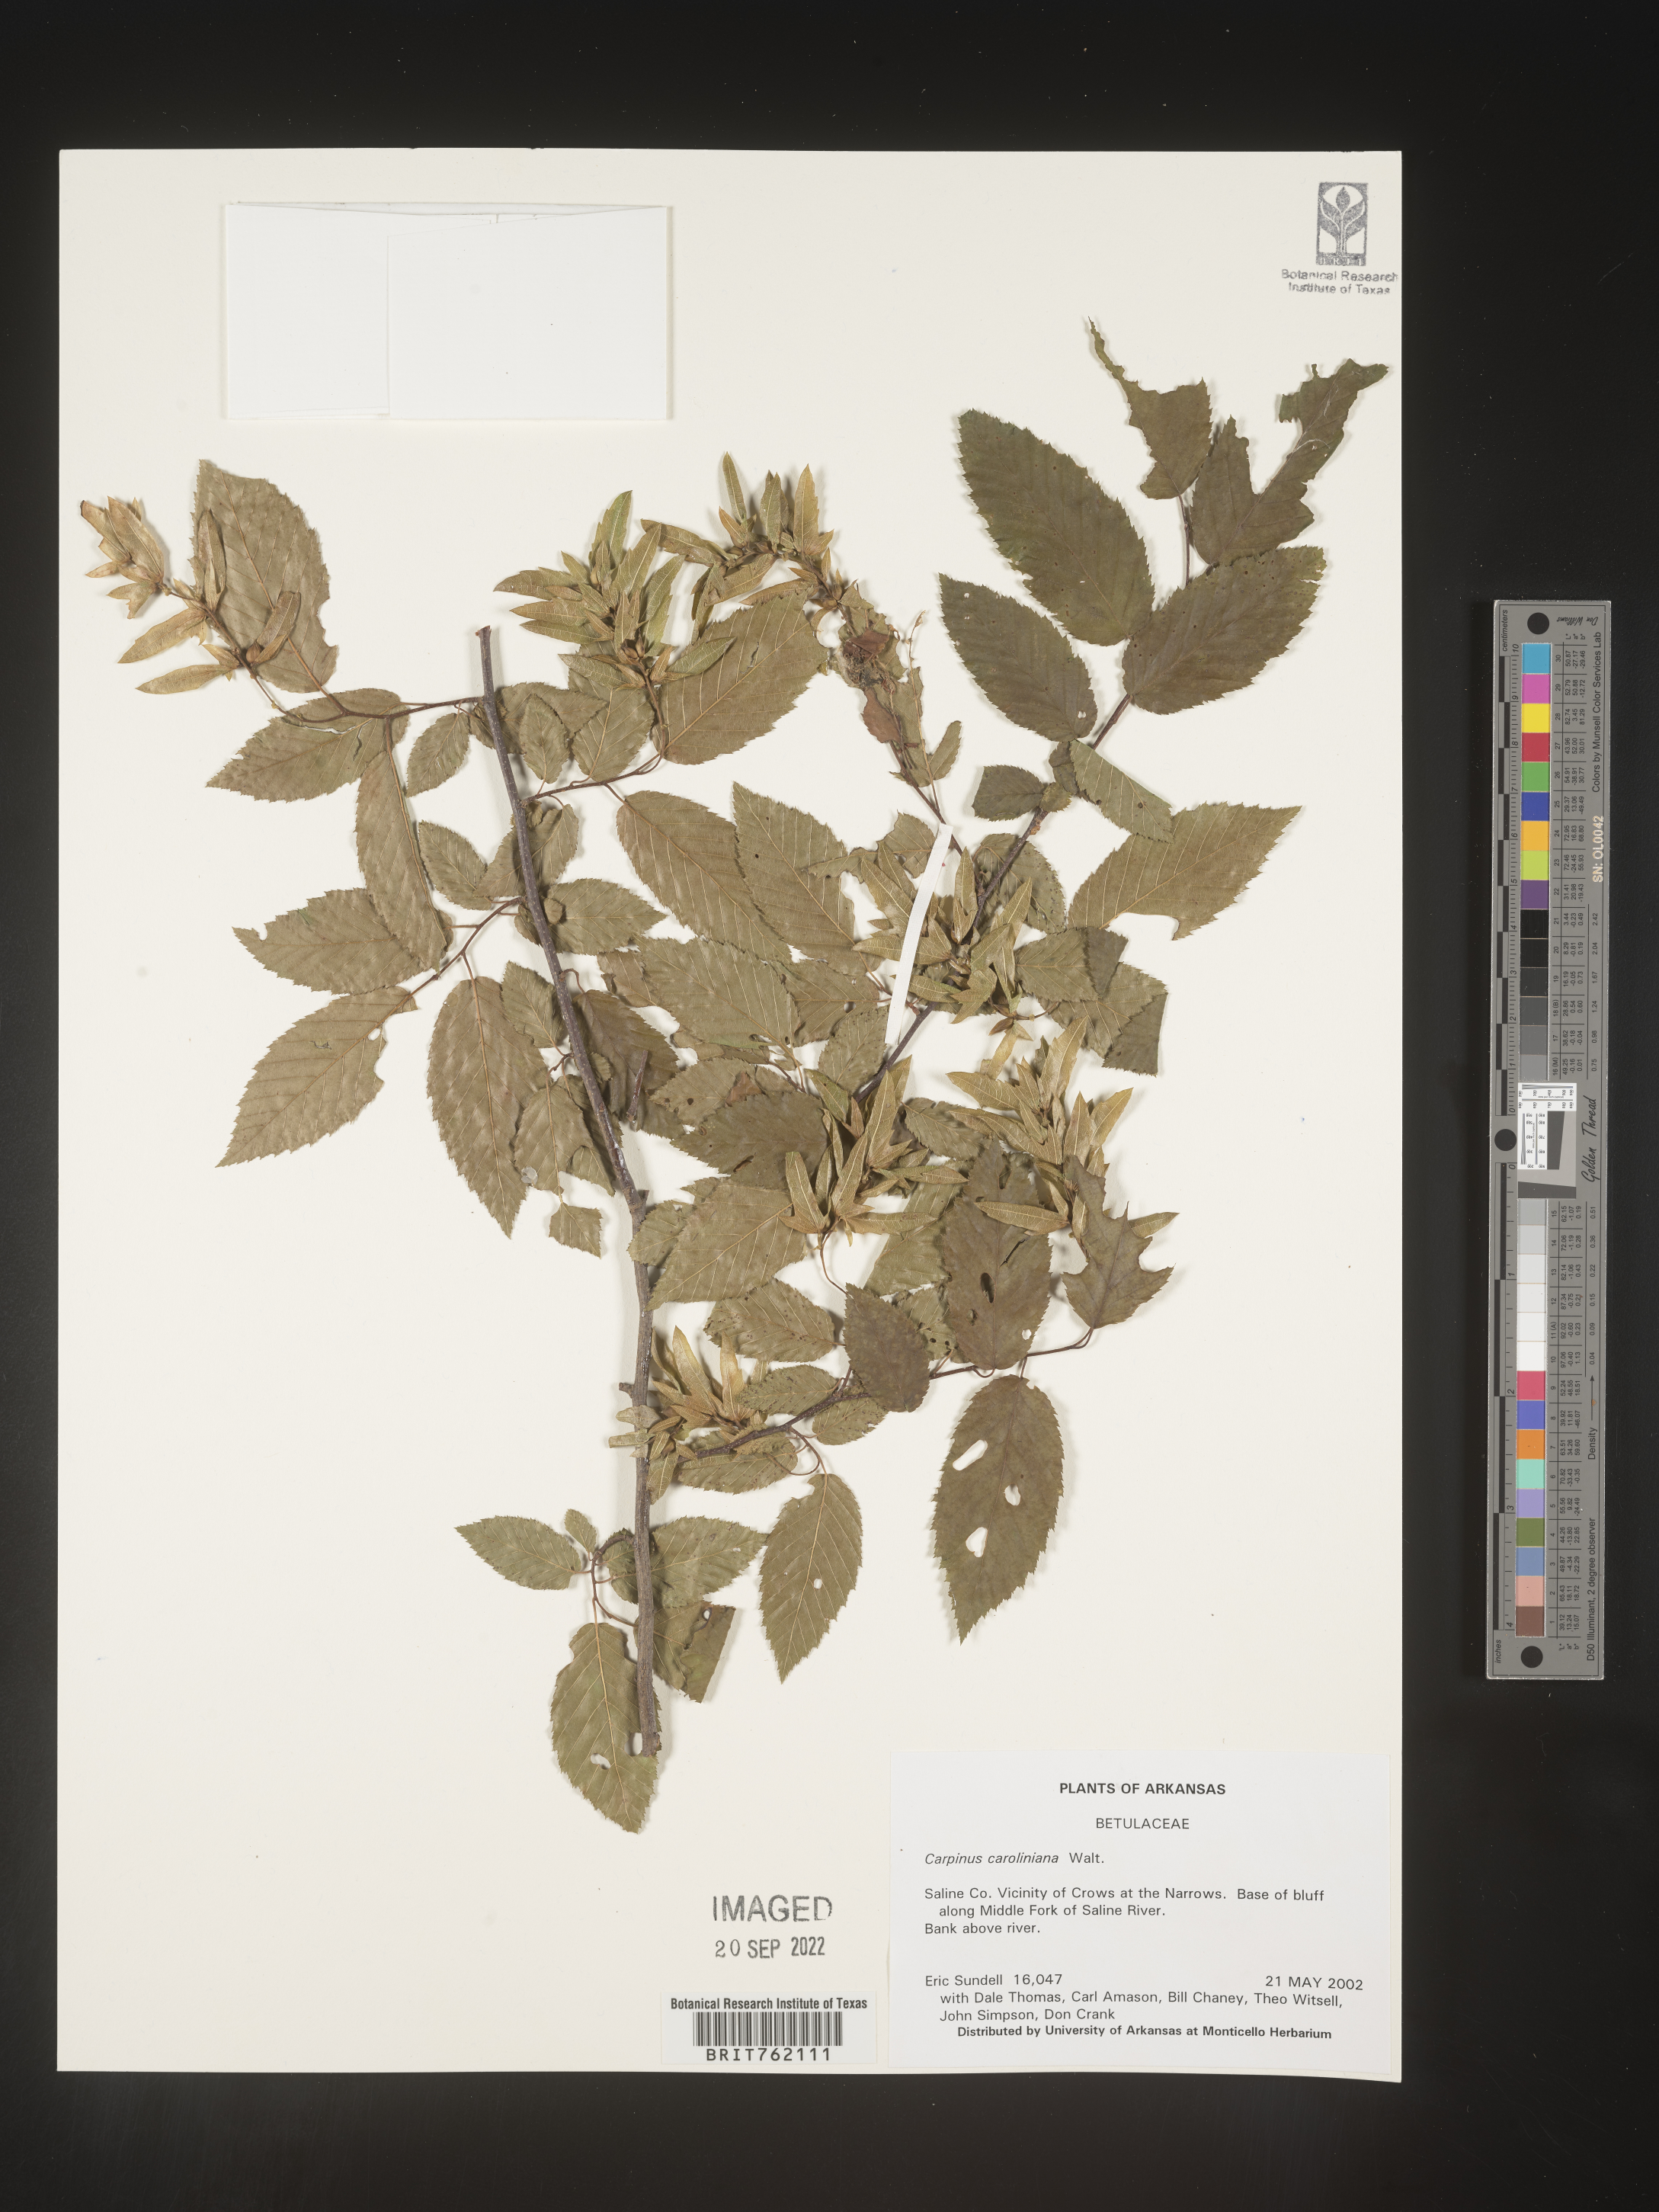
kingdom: Plantae
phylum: Tracheophyta
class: Magnoliopsida
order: Fagales
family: Betulaceae
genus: Carpinus
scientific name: Carpinus caroliniana
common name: American hornbeam
